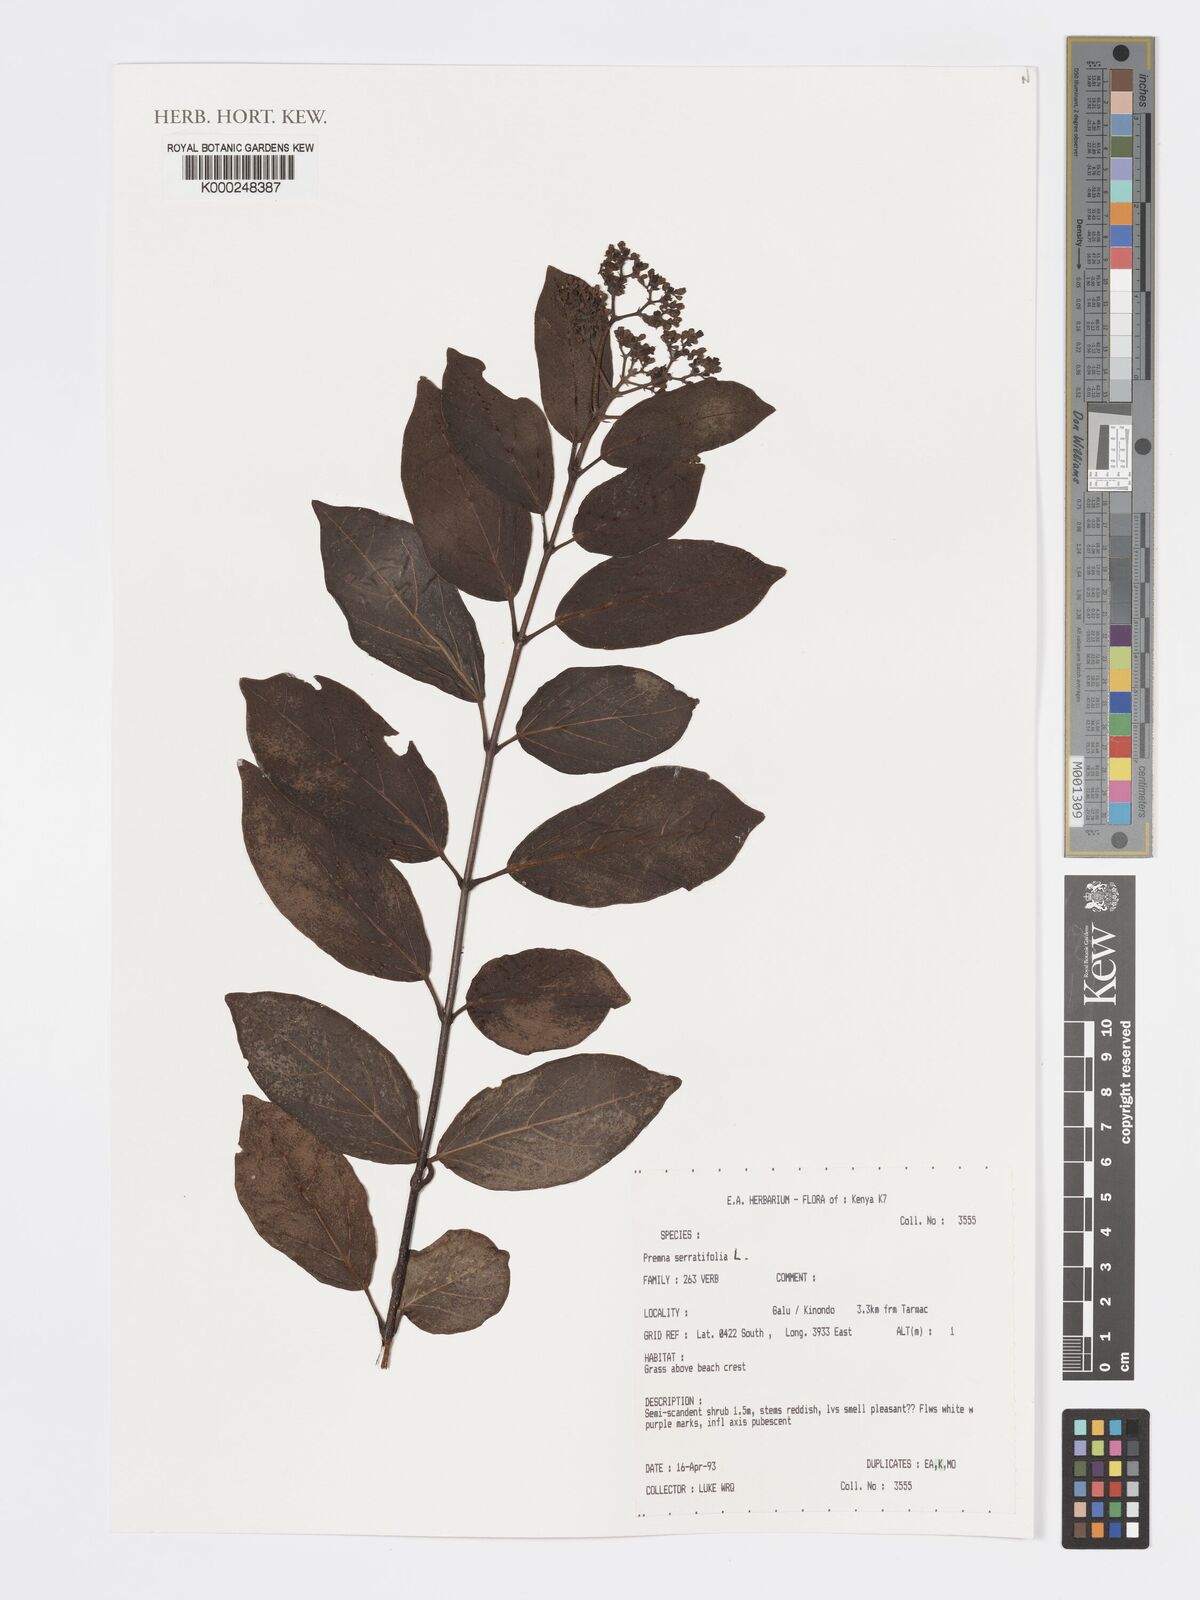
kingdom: Plantae
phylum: Tracheophyta
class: Magnoliopsida
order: Lamiales
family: Lamiaceae
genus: Premna
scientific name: Premna serratifolia
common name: Bastard guelder
